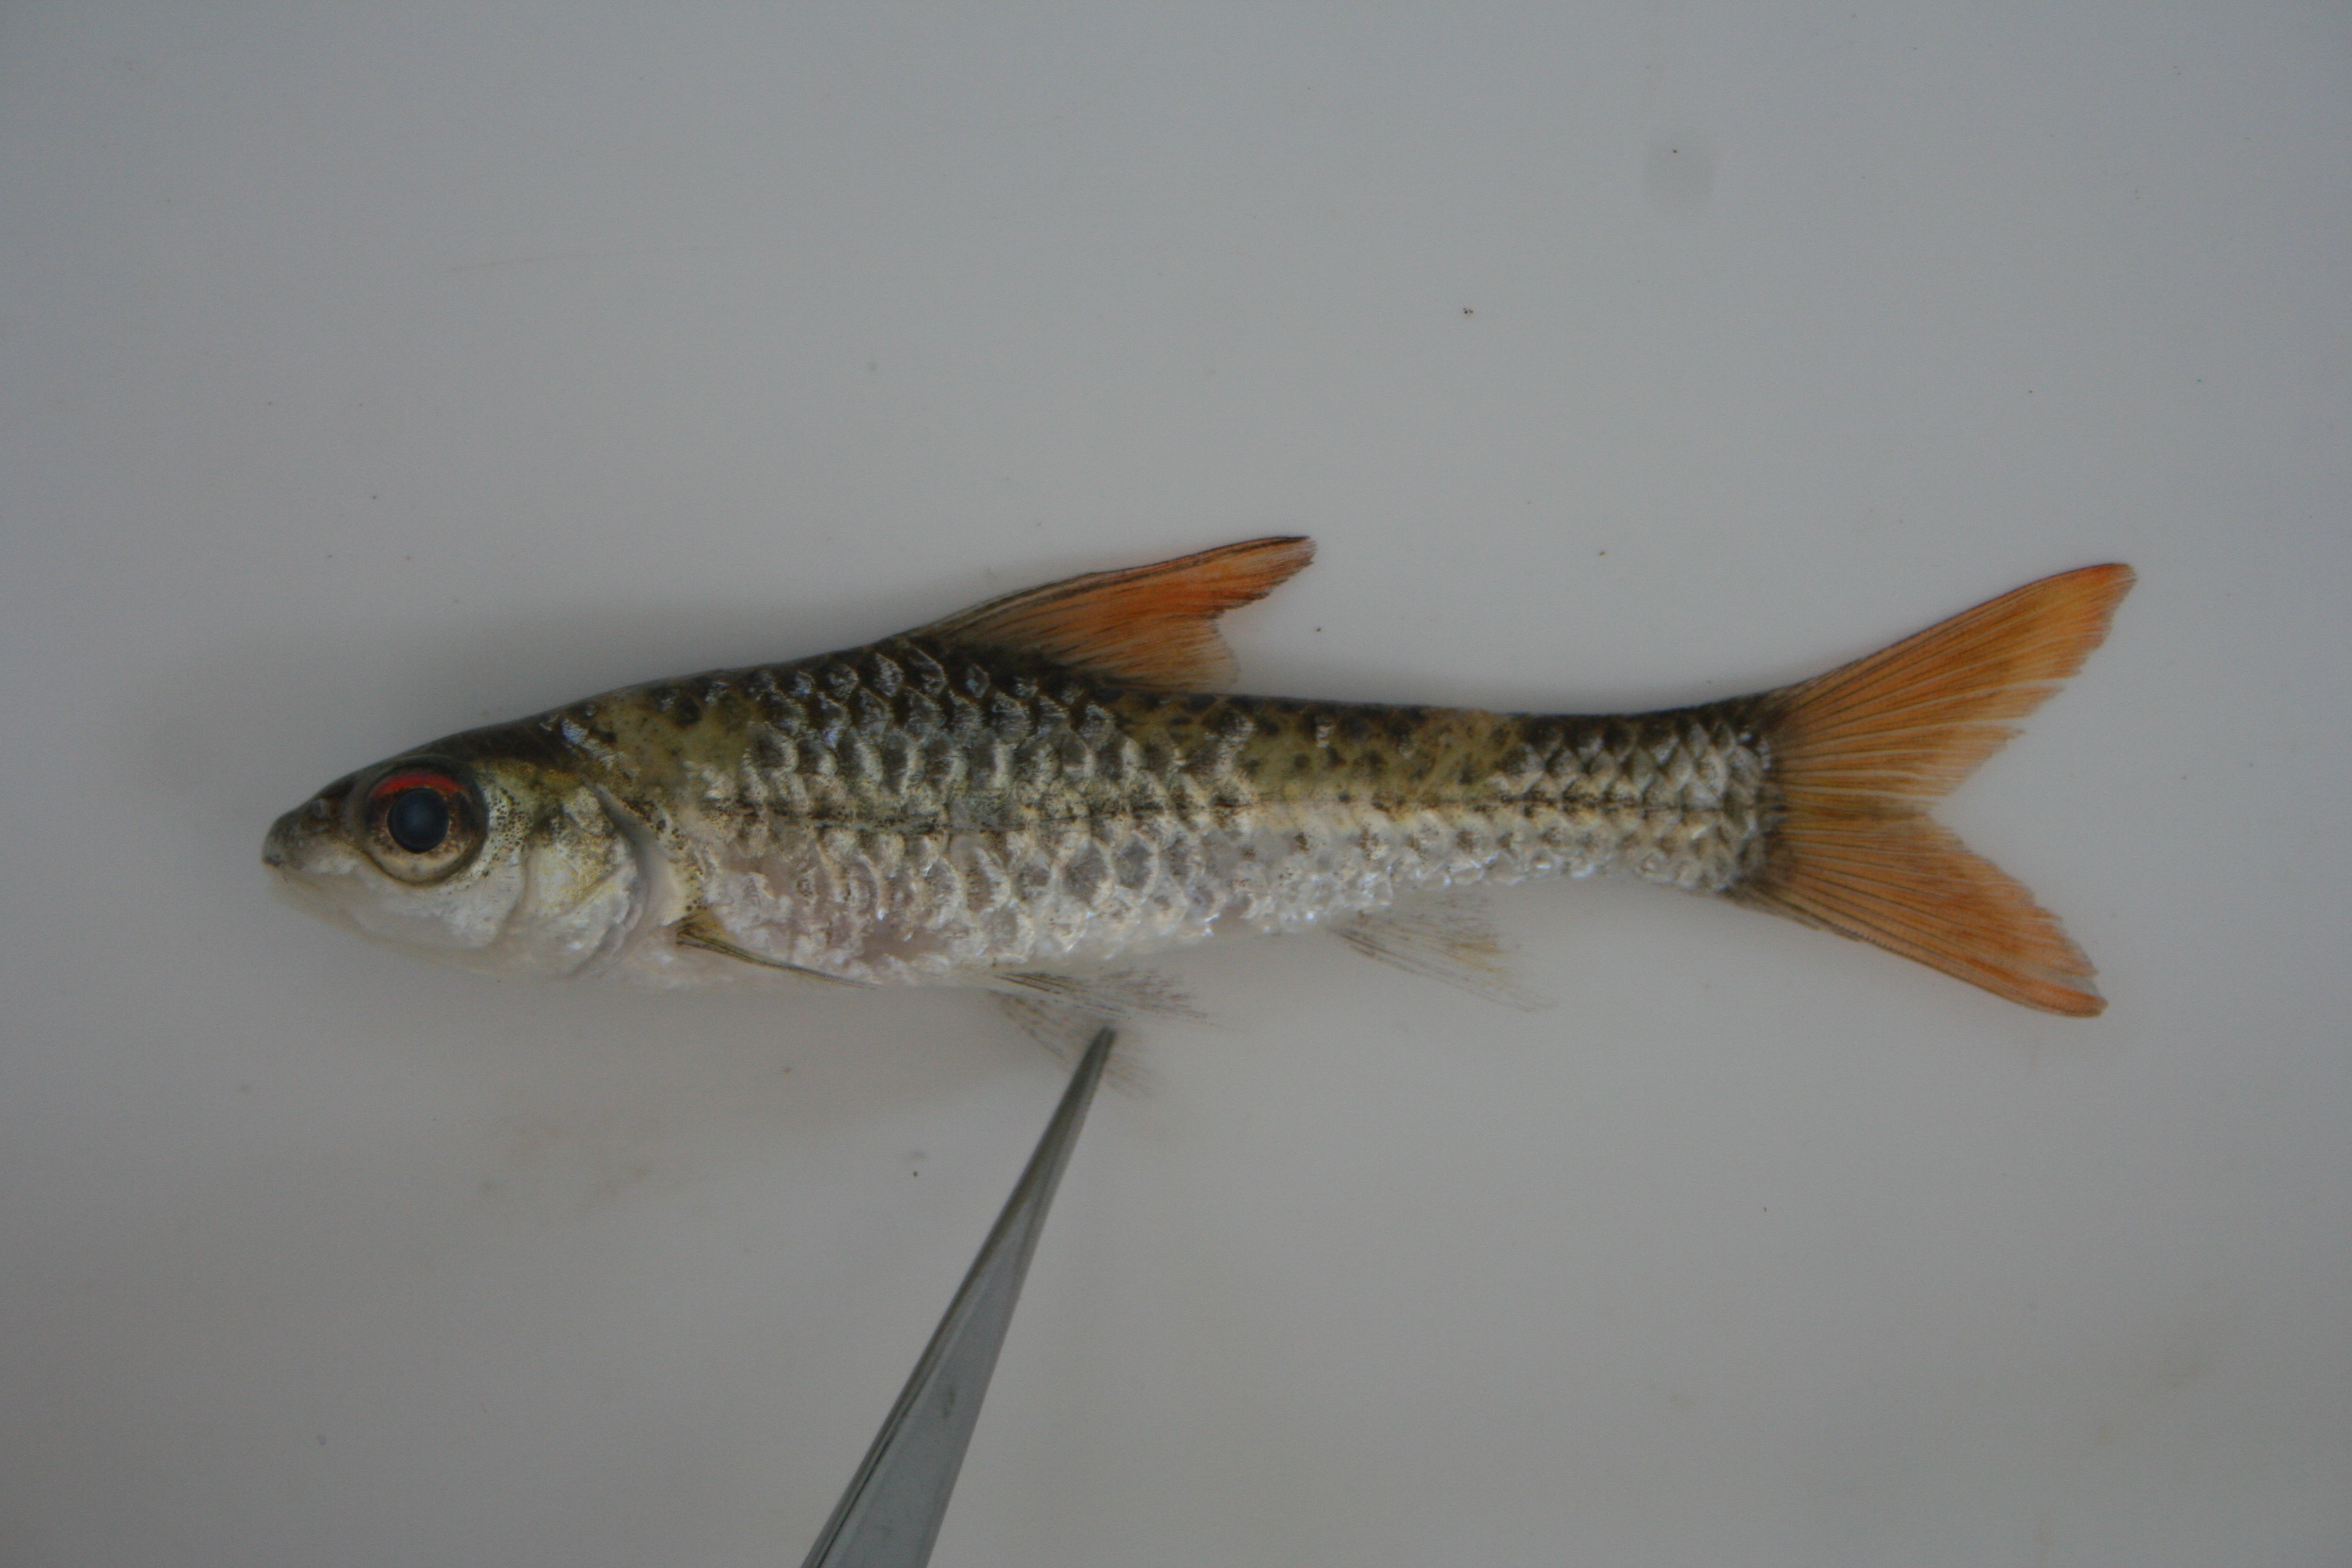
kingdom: Animalia
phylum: Chordata
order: Cypriniformes
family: Cyprinidae
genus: Enteromius
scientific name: Enteromius radiatus
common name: Beira barb
